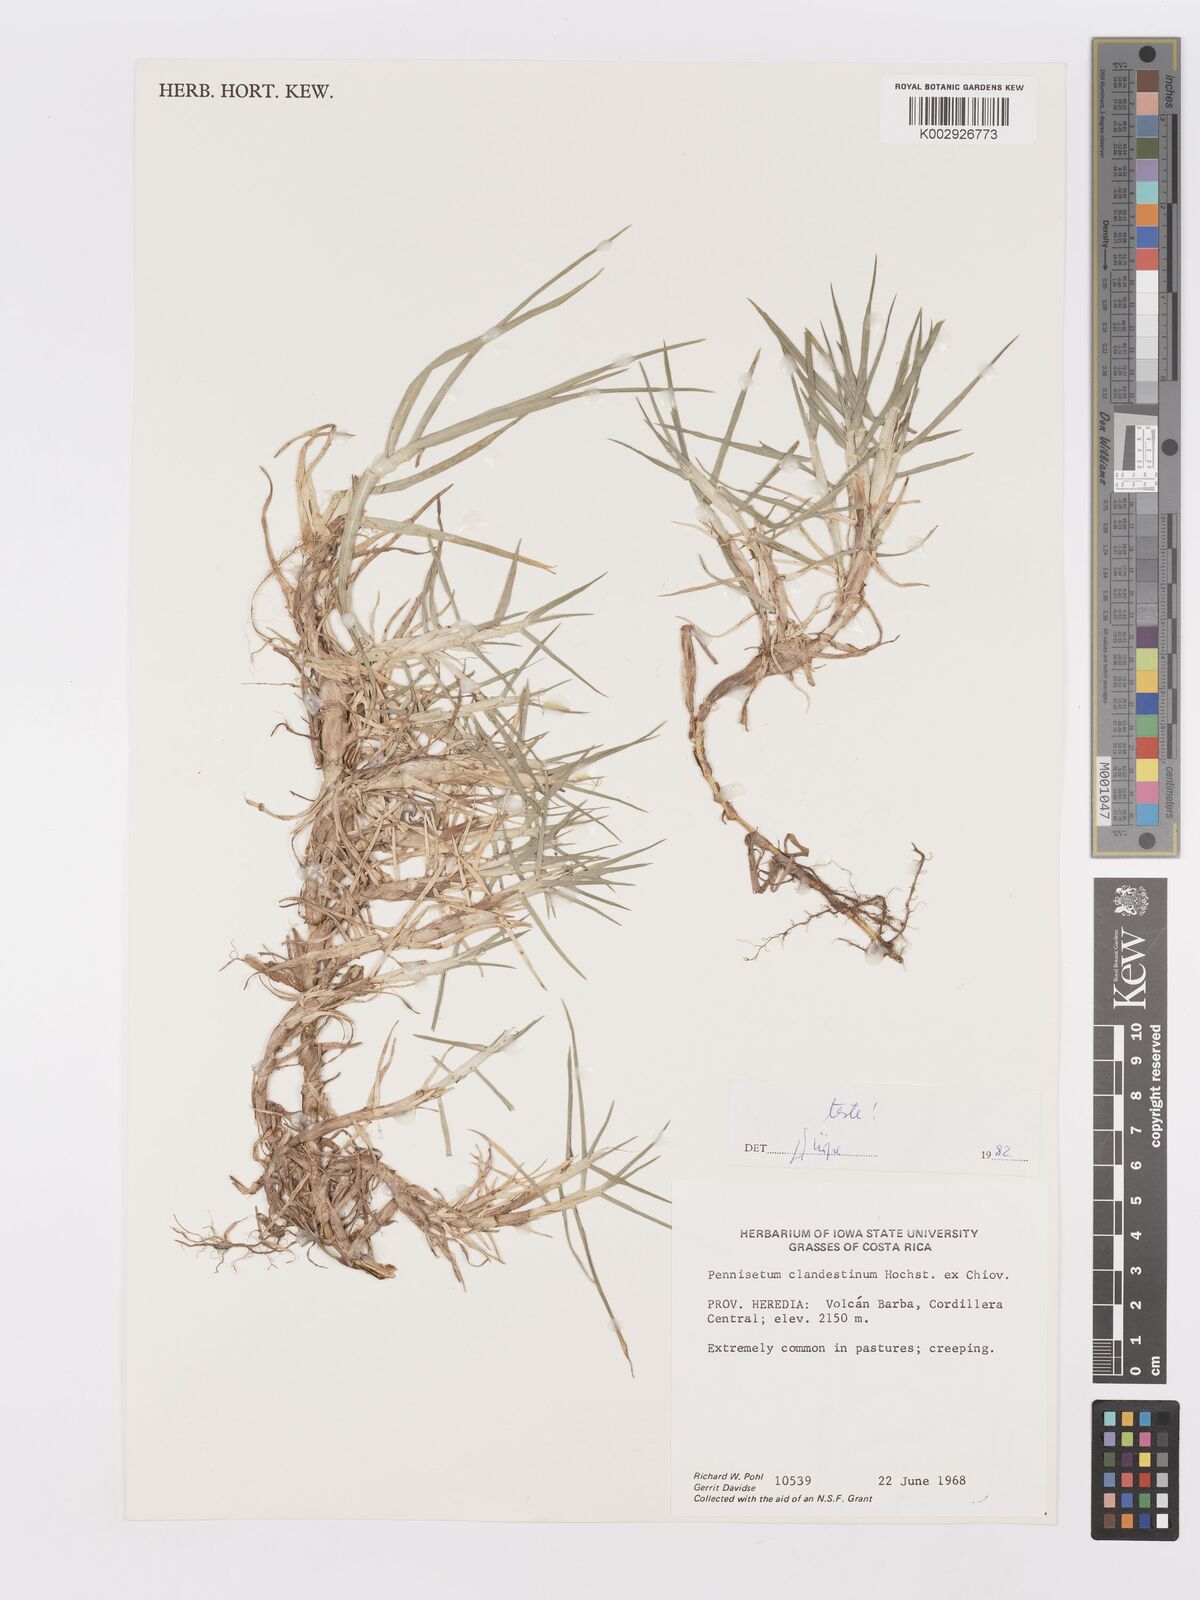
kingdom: Plantae
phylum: Tracheophyta
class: Liliopsida
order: Poales
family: Poaceae
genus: Cenchrus
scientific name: Cenchrus clandestinus
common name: Kikuyugrass
